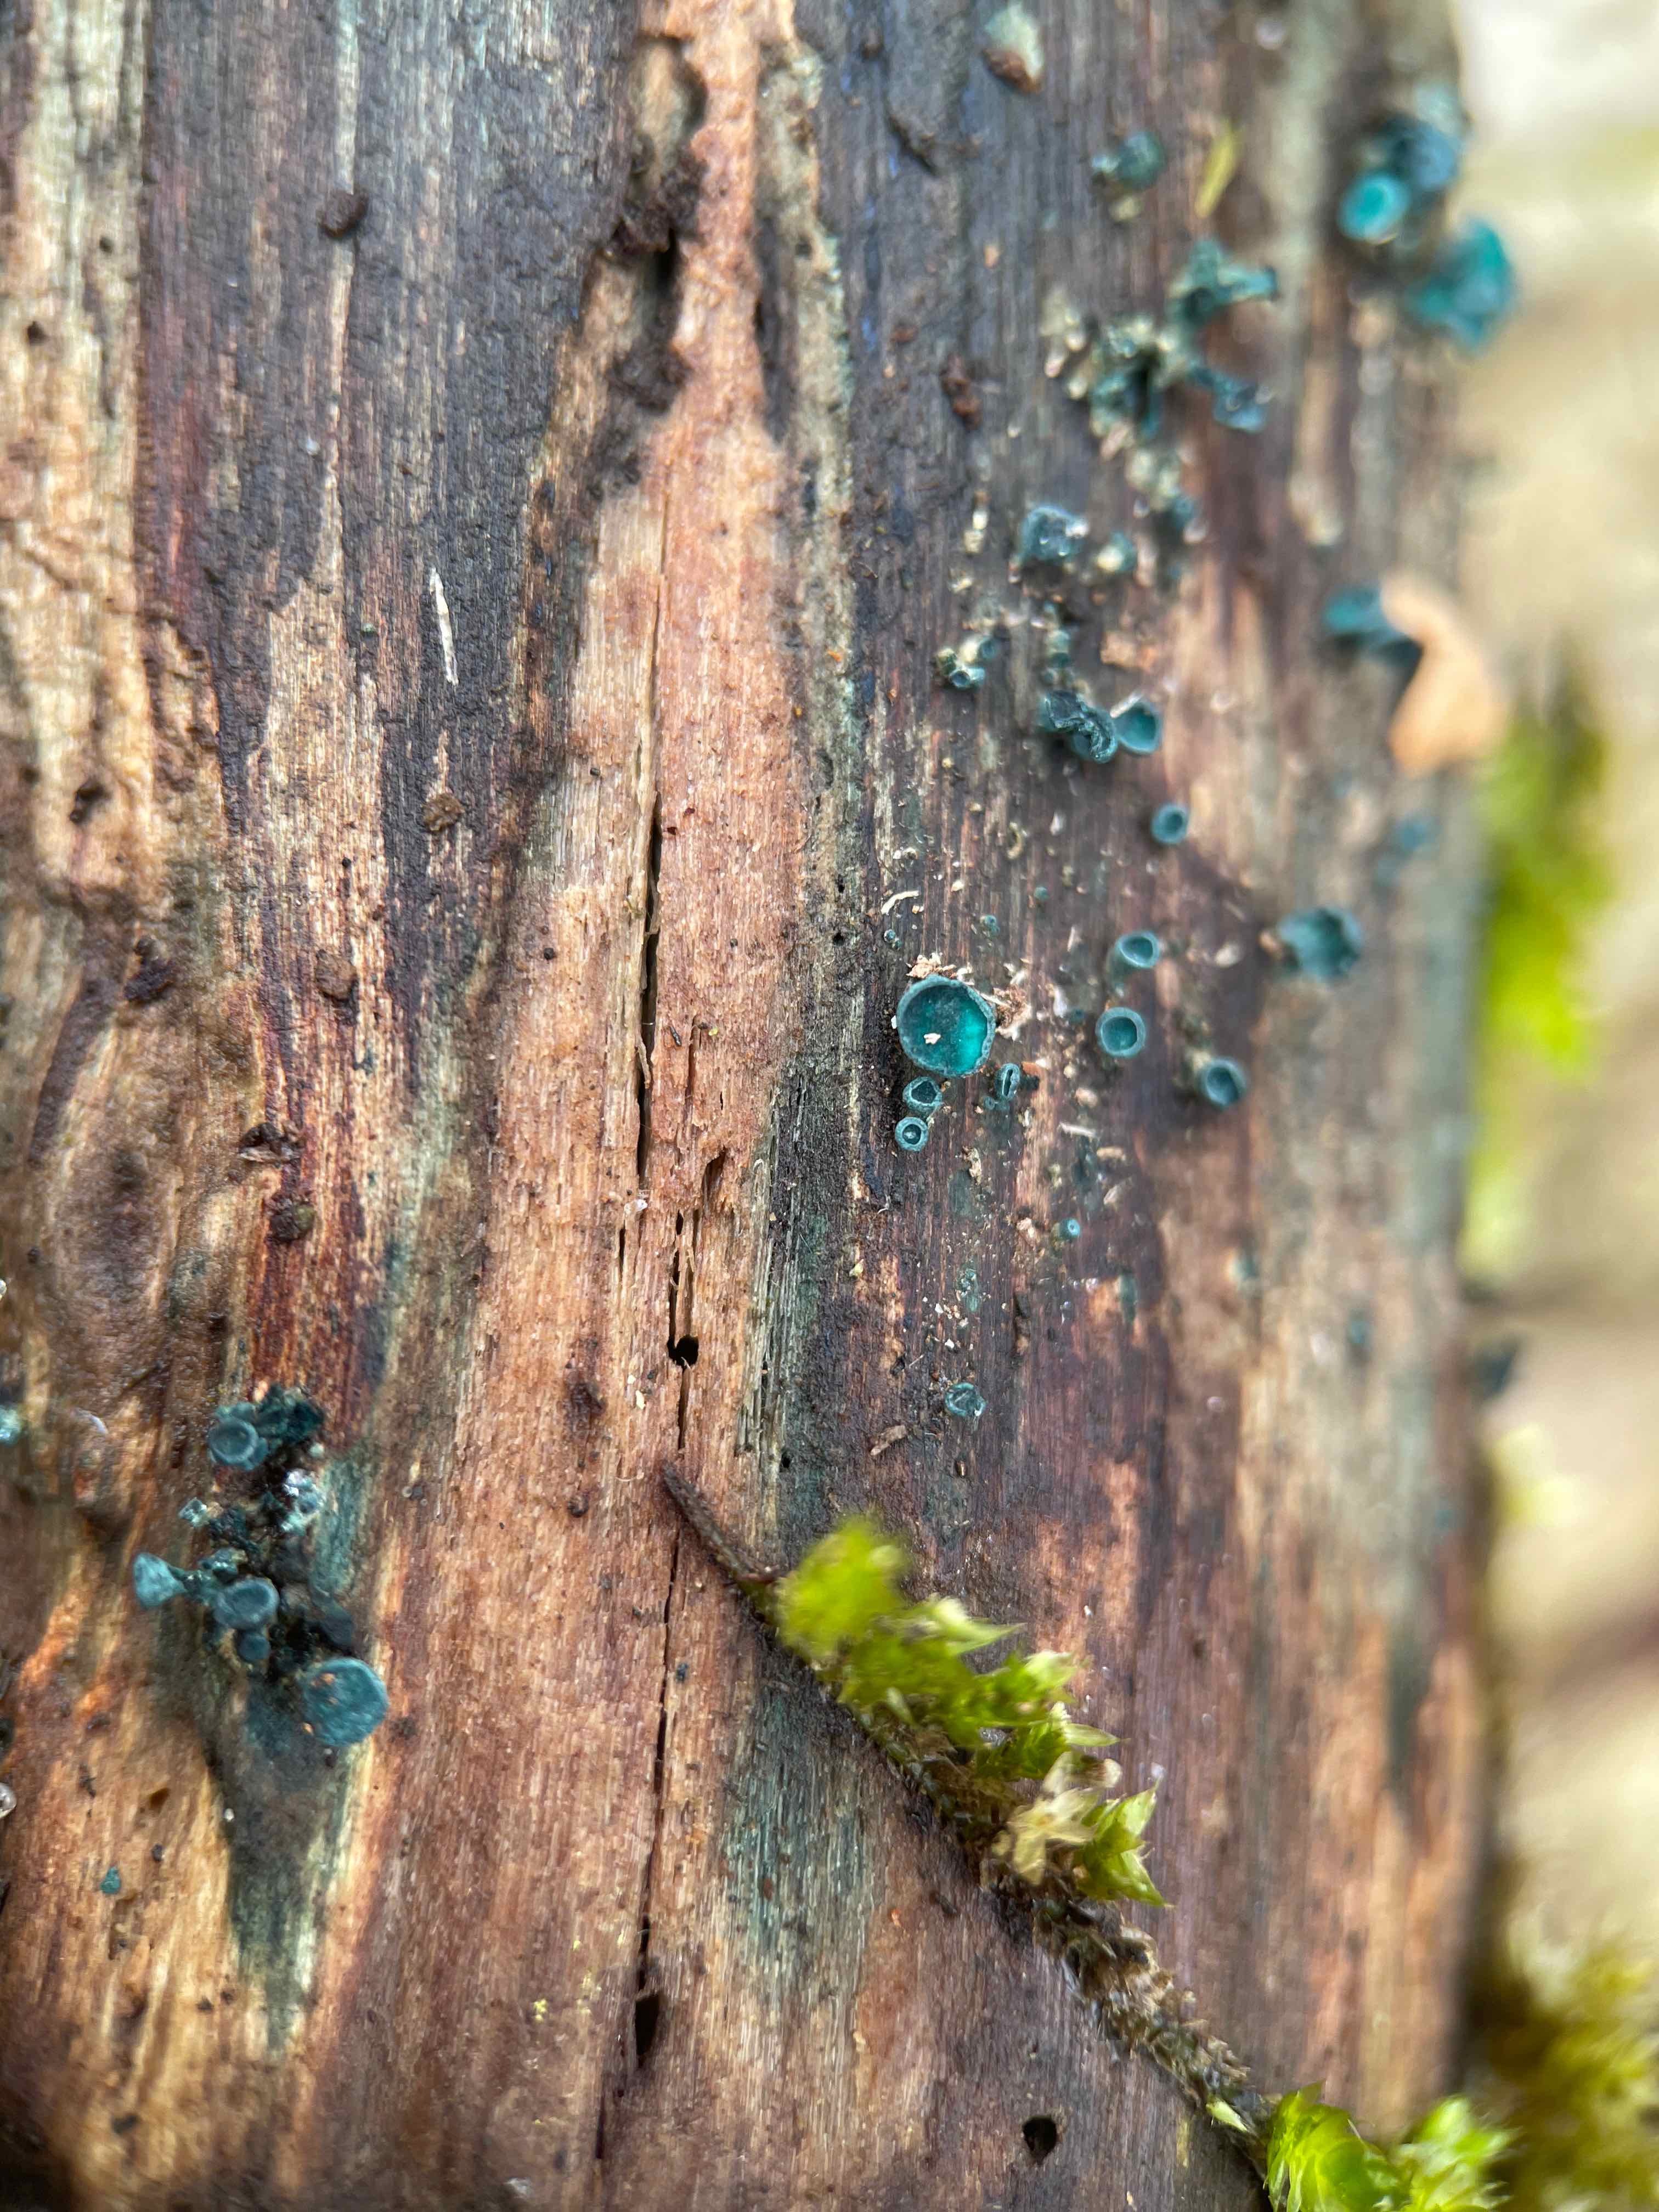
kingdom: Fungi
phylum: Ascomycota
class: Leotiomycetes
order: Helotiales
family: Chlorociboriaceae
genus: Chlorociboria
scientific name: Chlorociboria aeruginascens
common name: almindelig grønskive
